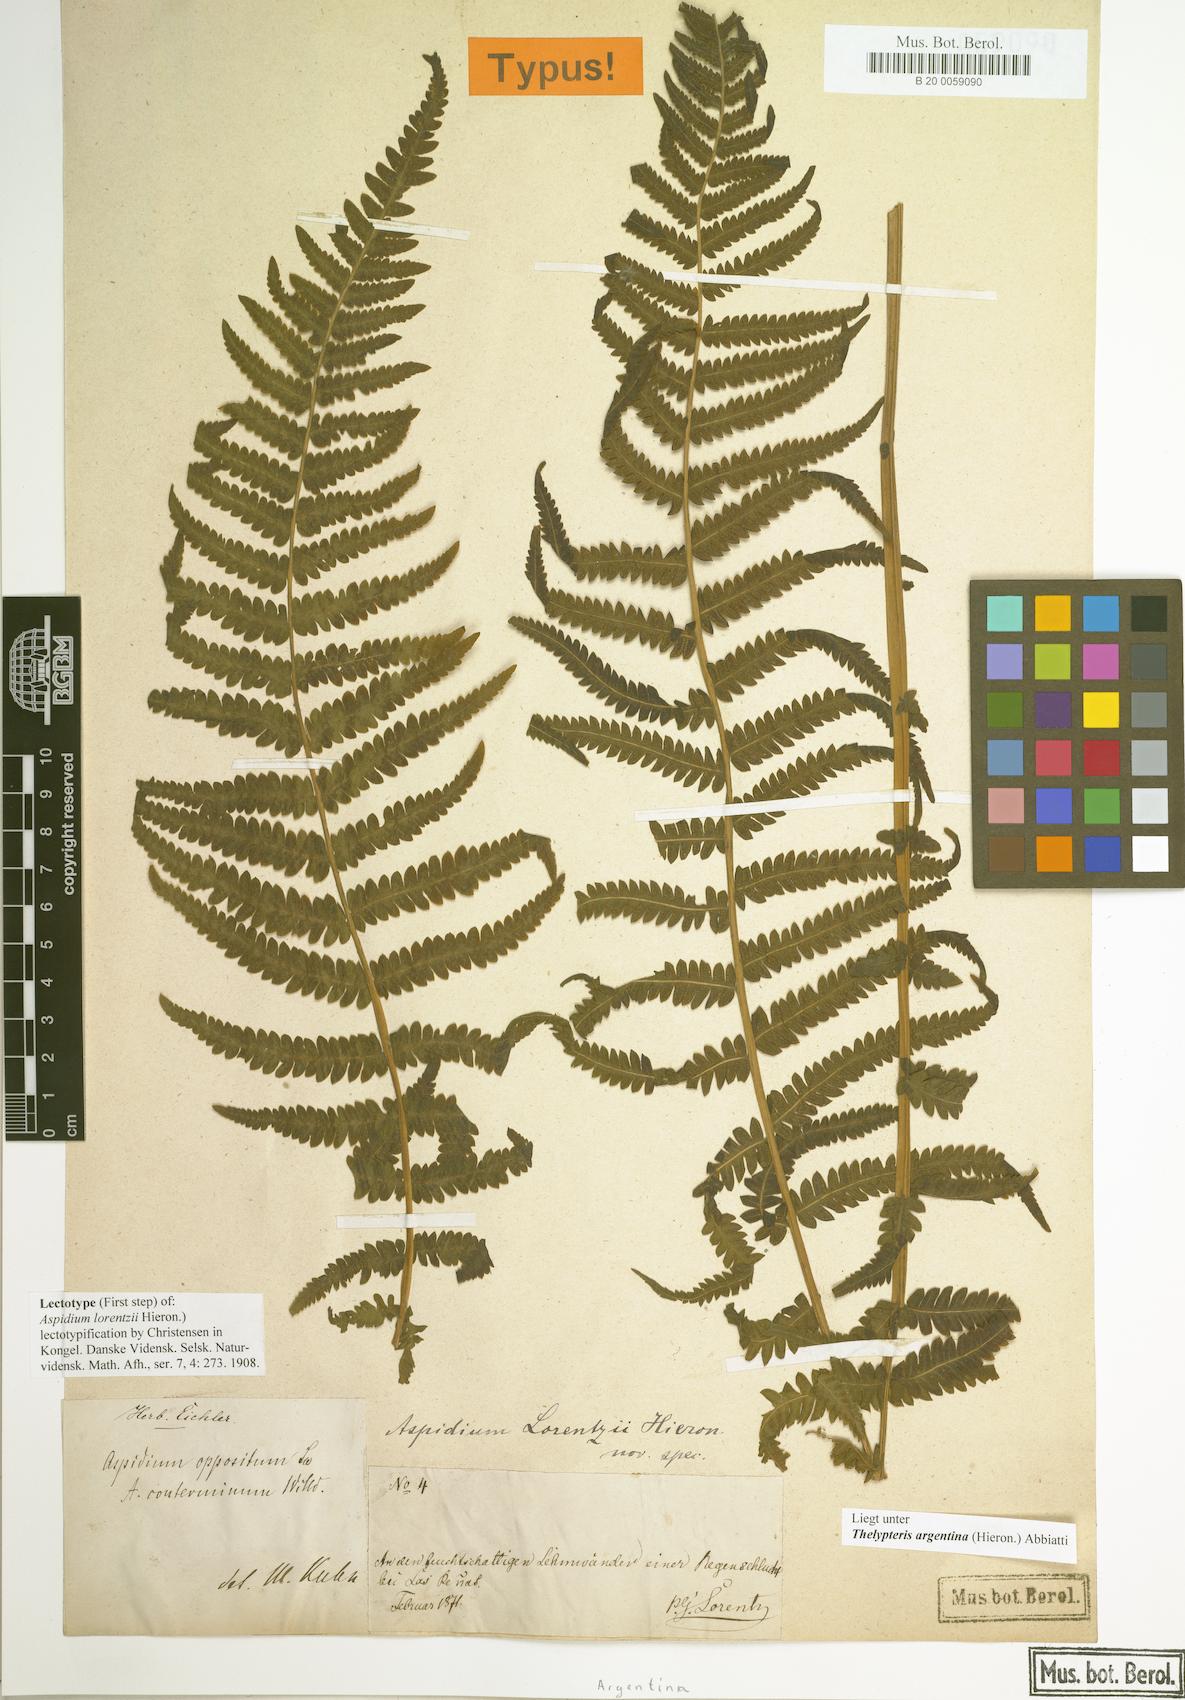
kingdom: Plantae
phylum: Tracheophyta
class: Polypodiopsida
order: Polypodiales
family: Thelypteridaceae
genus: Amauropelta
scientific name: Amauropelta argentina
